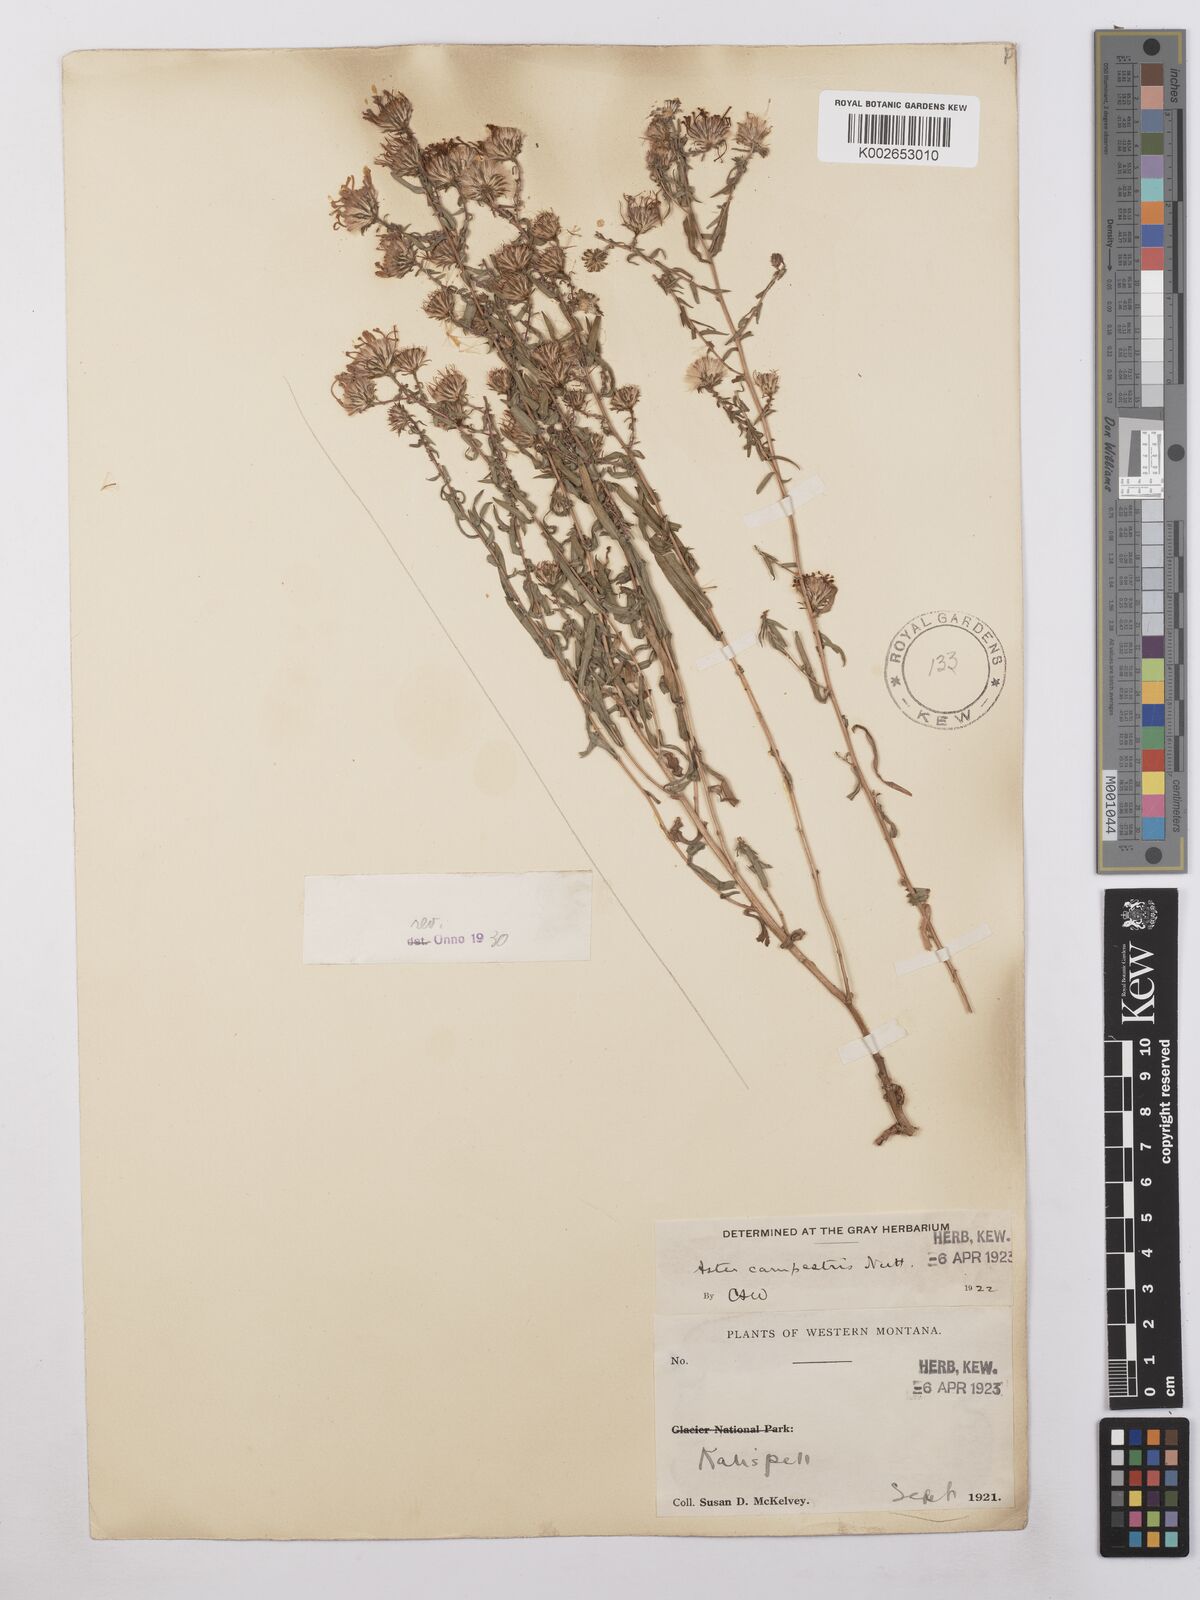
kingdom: Plantae
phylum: Tracheophyta
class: Magnoliopsida
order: Asterales
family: Asteraceae
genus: Symphyotrichum
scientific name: Symphyotrichum campestre
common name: Meadow aster
